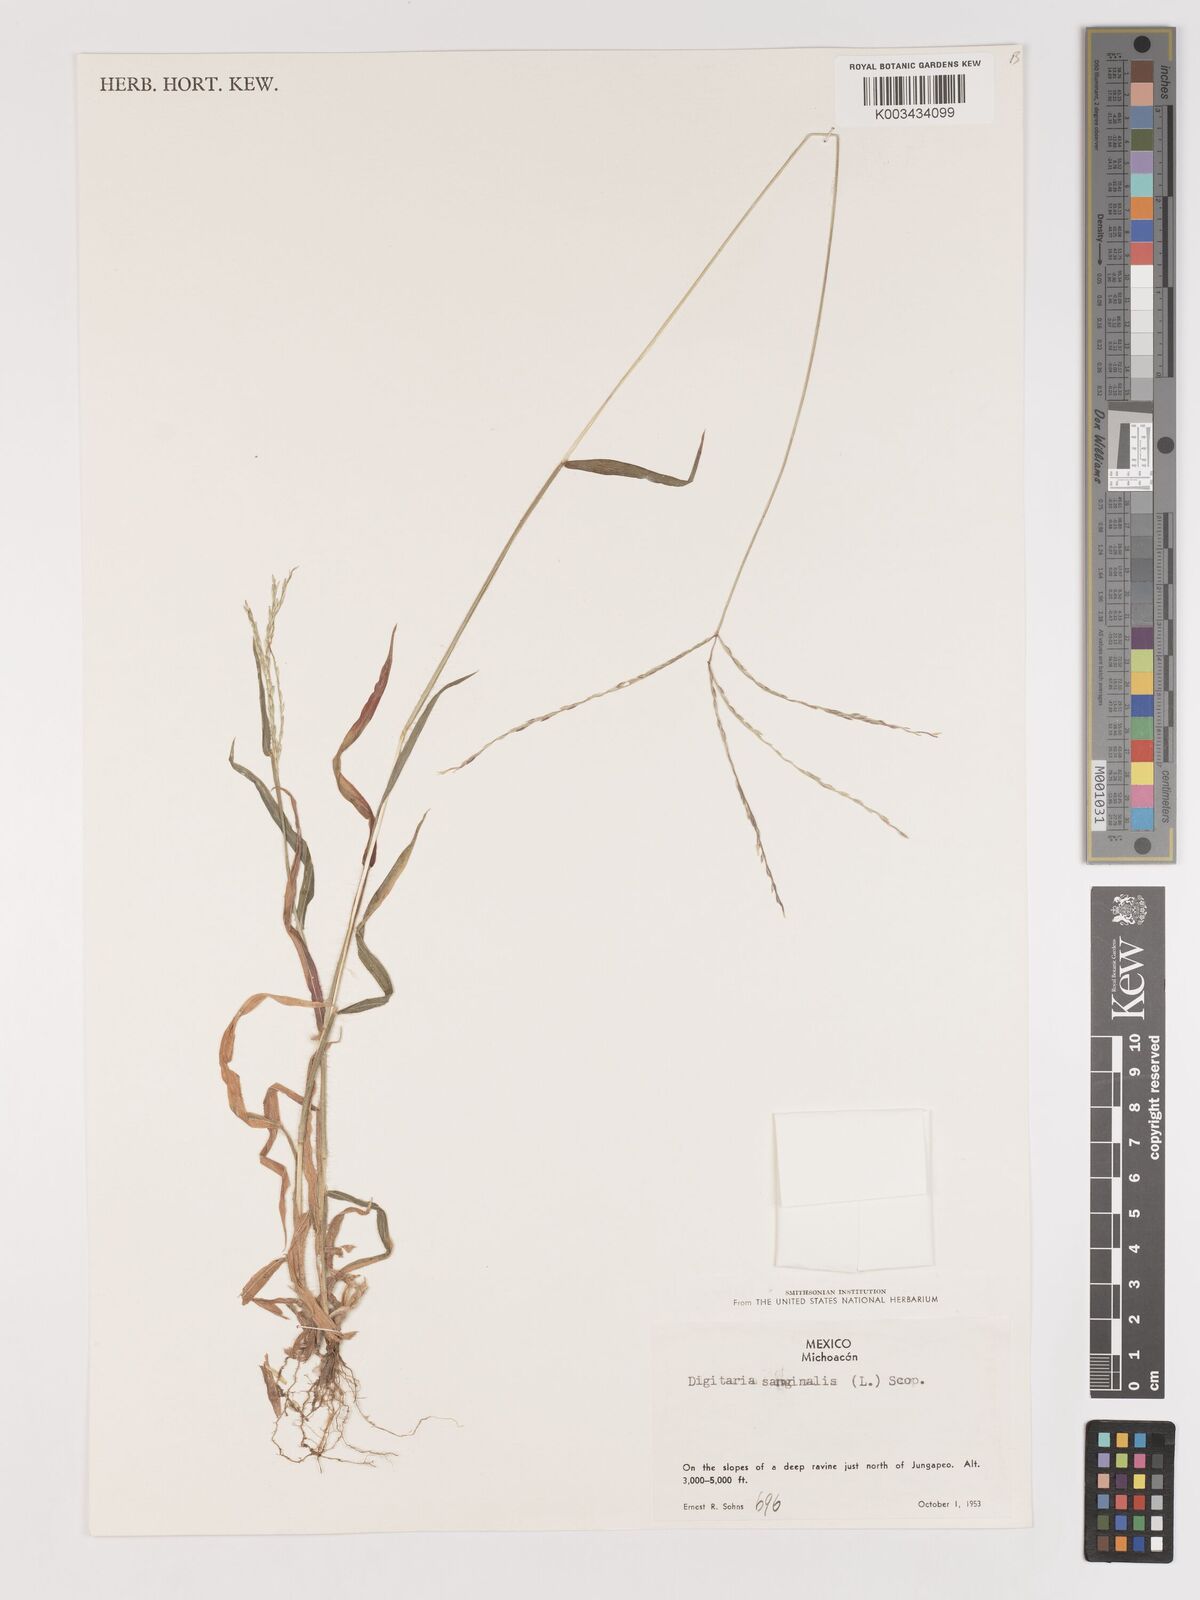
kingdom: Plantae
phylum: Tracheophyta
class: Liliopsida
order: Poales
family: Poaceae
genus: Digitaria
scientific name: Digitaria sanguinalis
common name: Hairy crabgrass
